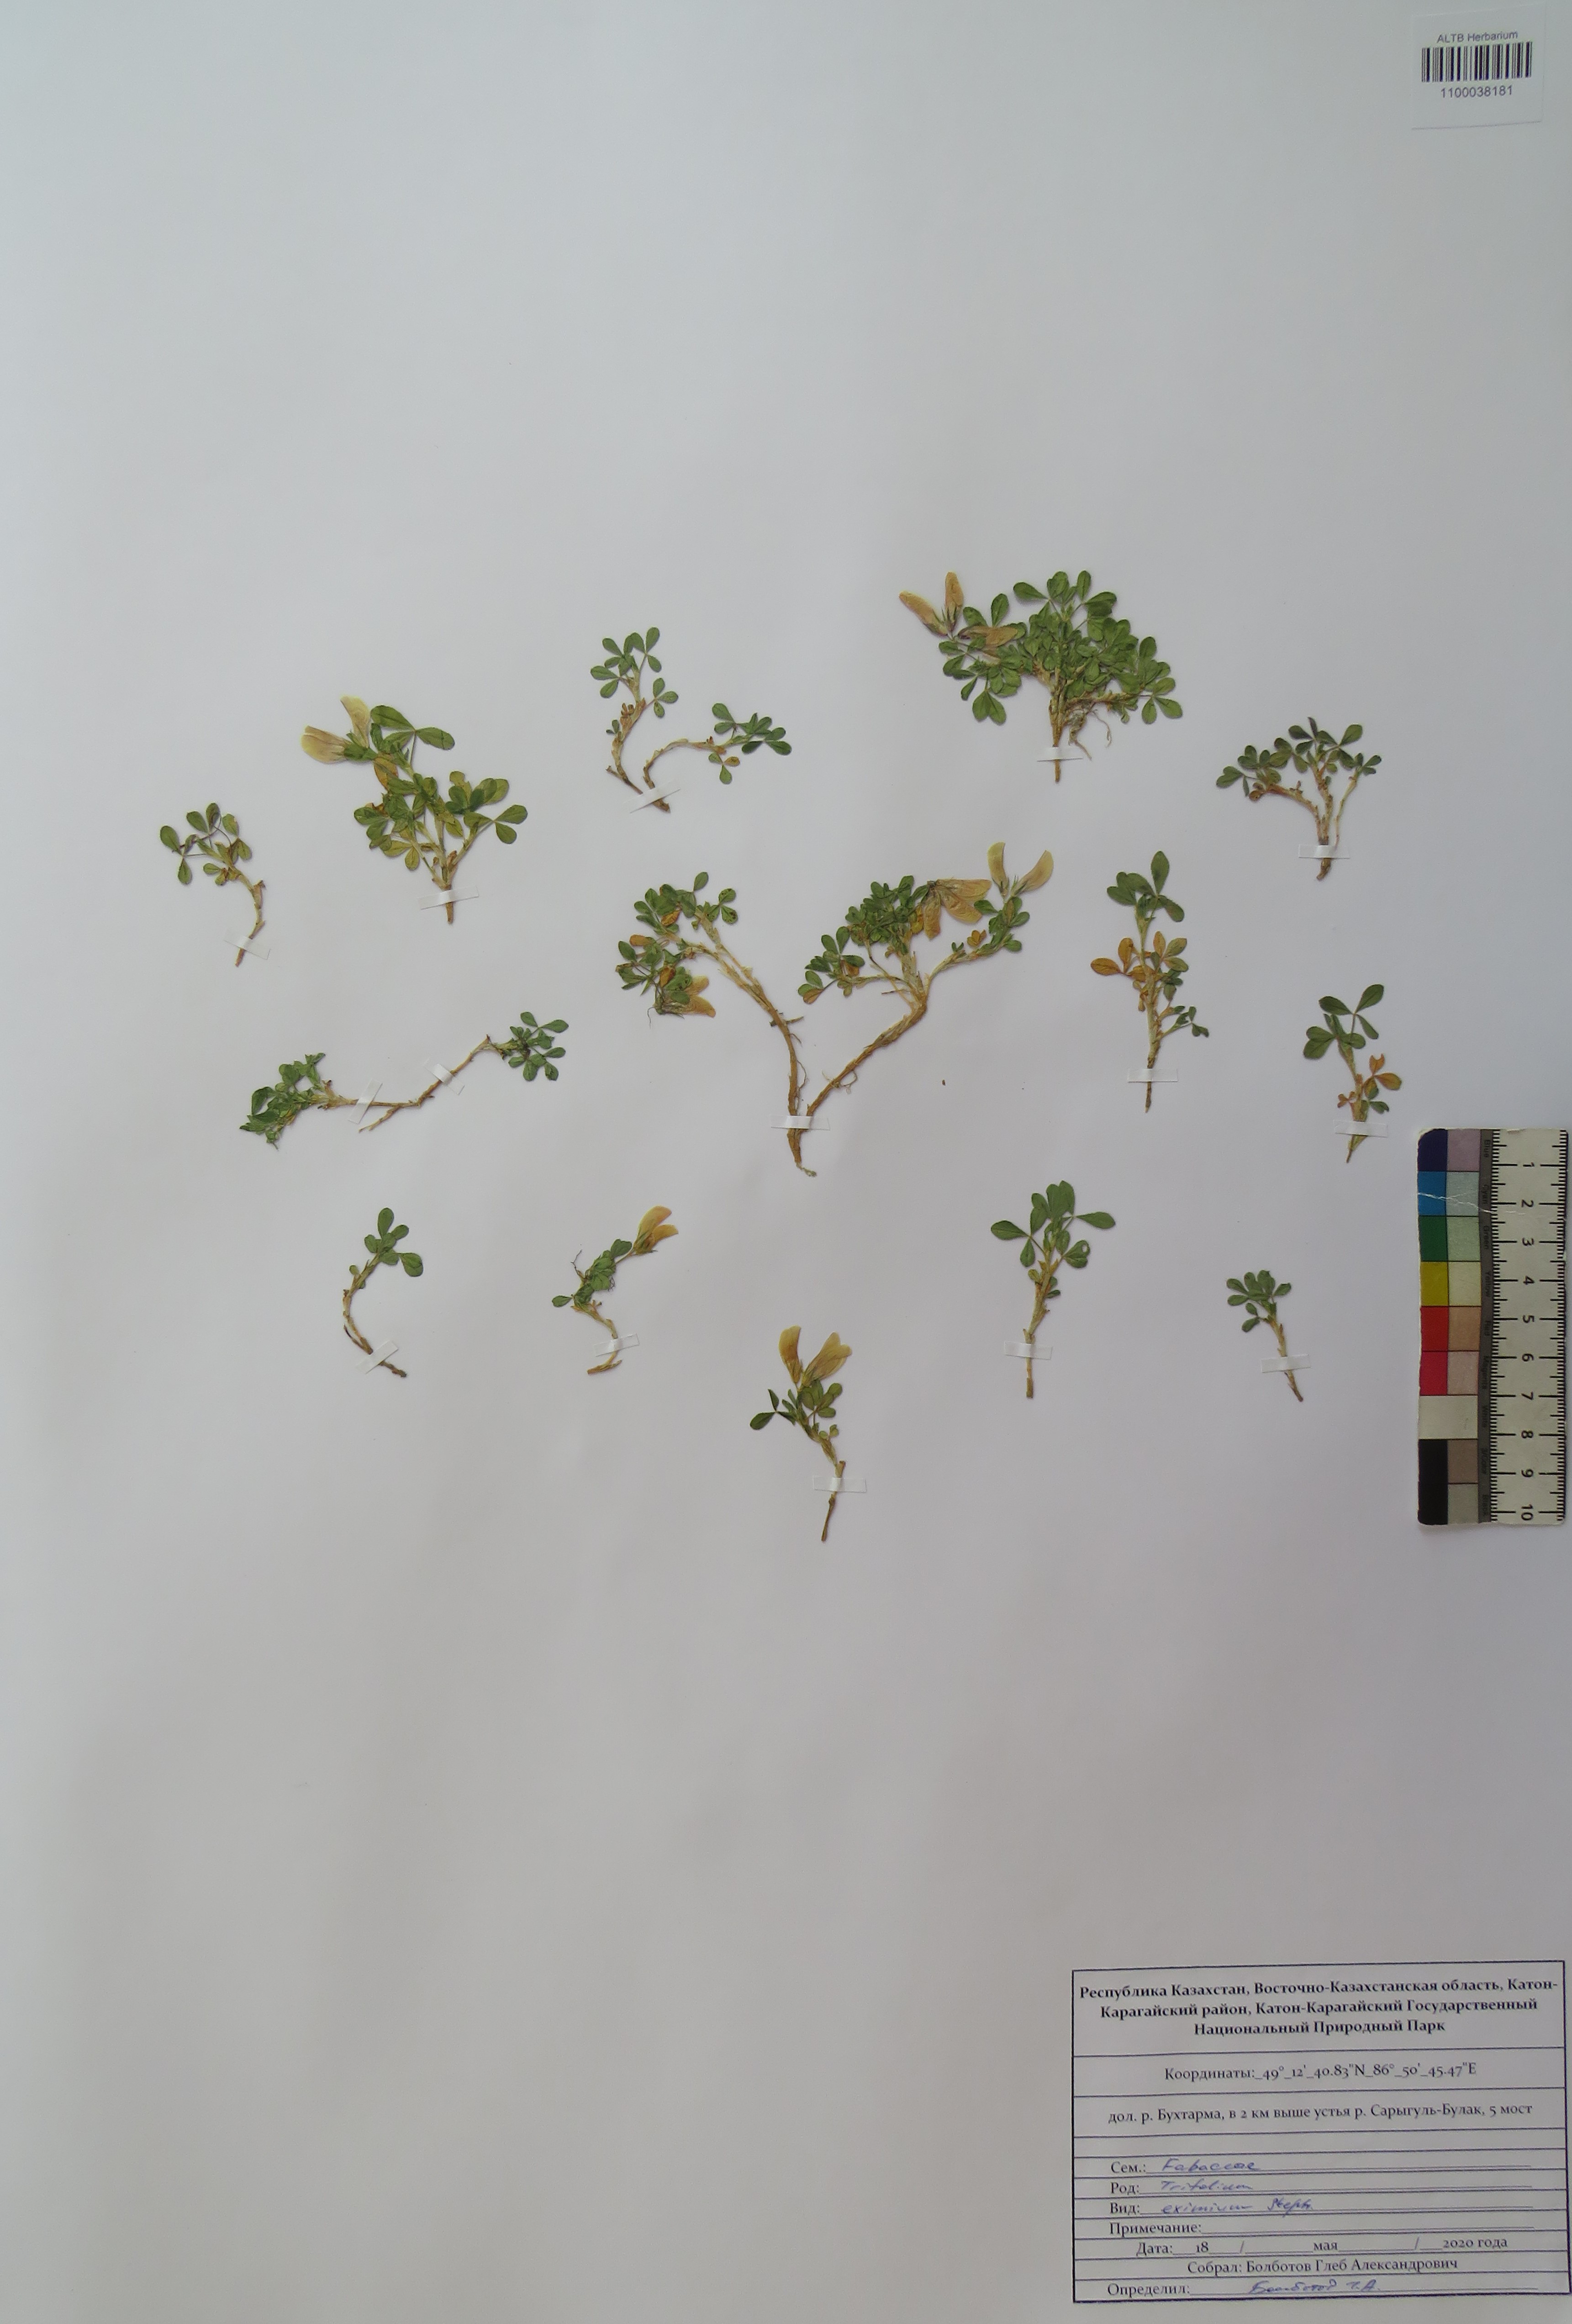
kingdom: Plantae
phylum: Tracheophyta
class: Magnoliopsida
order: Fabales
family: Fabaceae
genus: Trifolium
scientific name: Trifolium eximium
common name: Excellent clover
